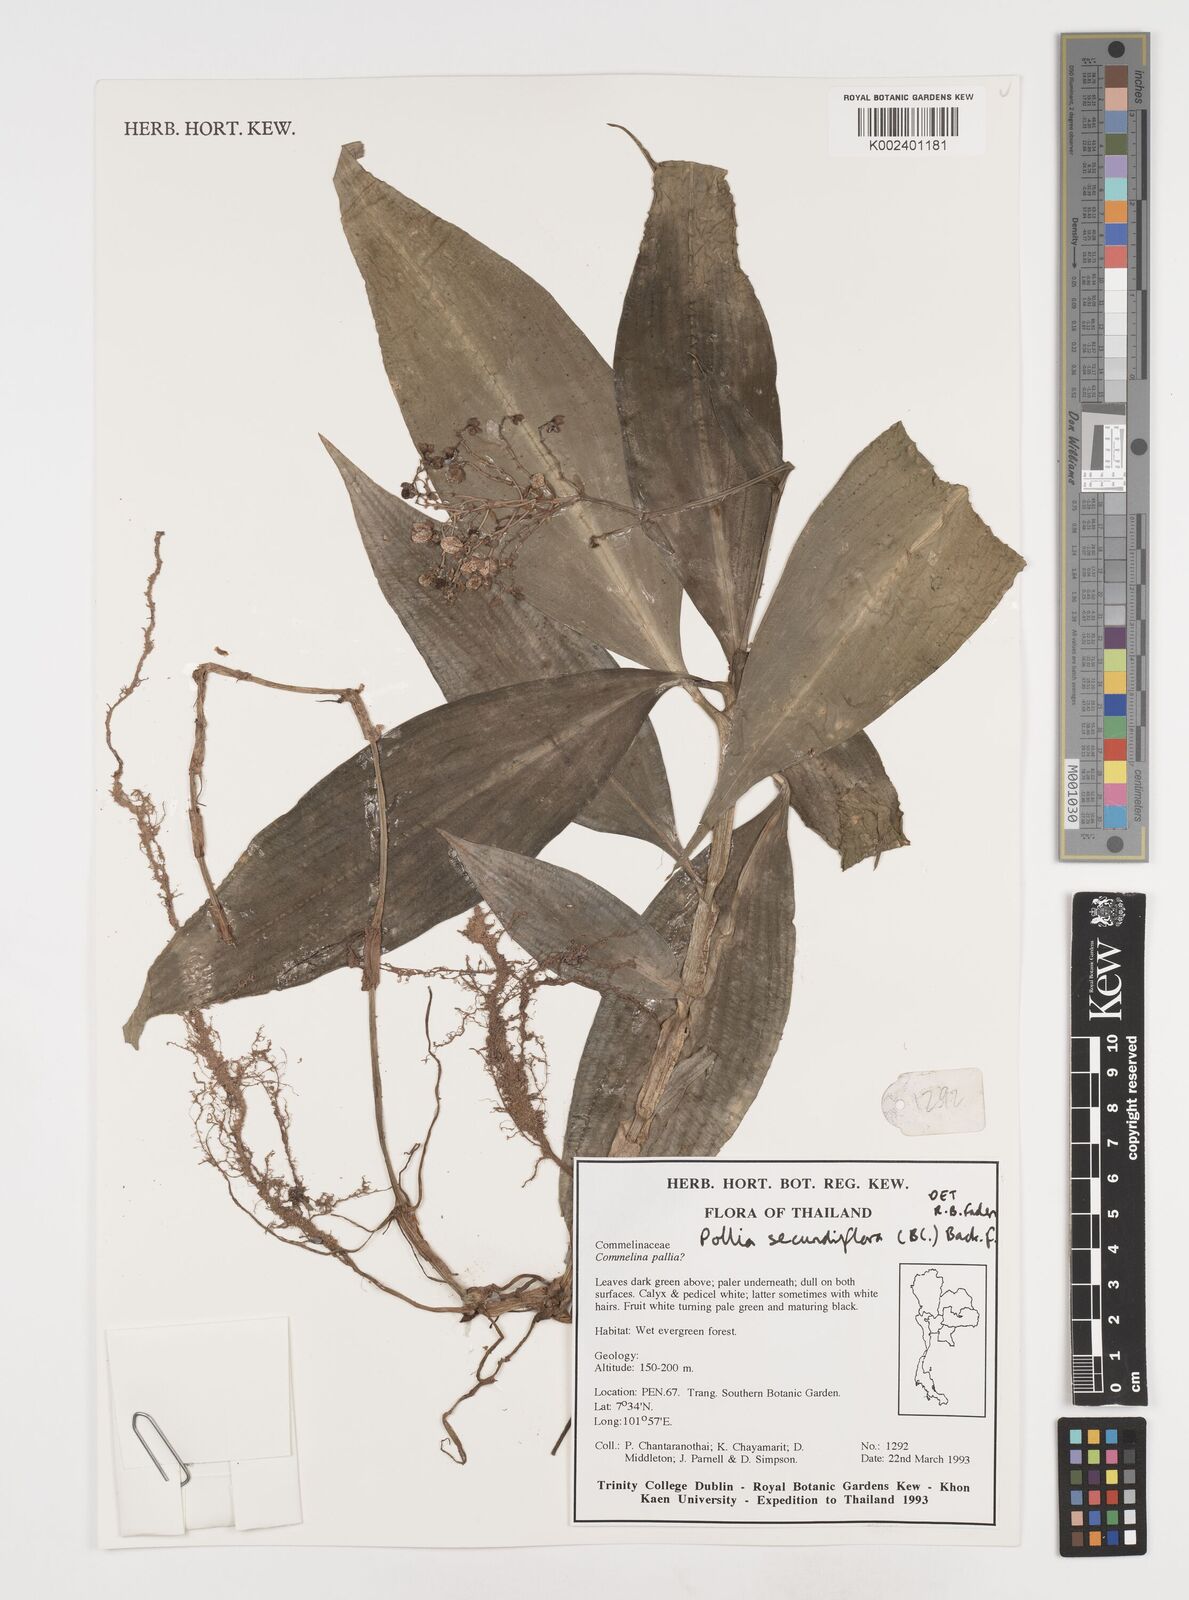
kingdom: Plantae
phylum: Tracheophyta
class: Liliopsida
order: Commelinales
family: Commelinaceae
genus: Pollia
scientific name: Pollia secundiflora
